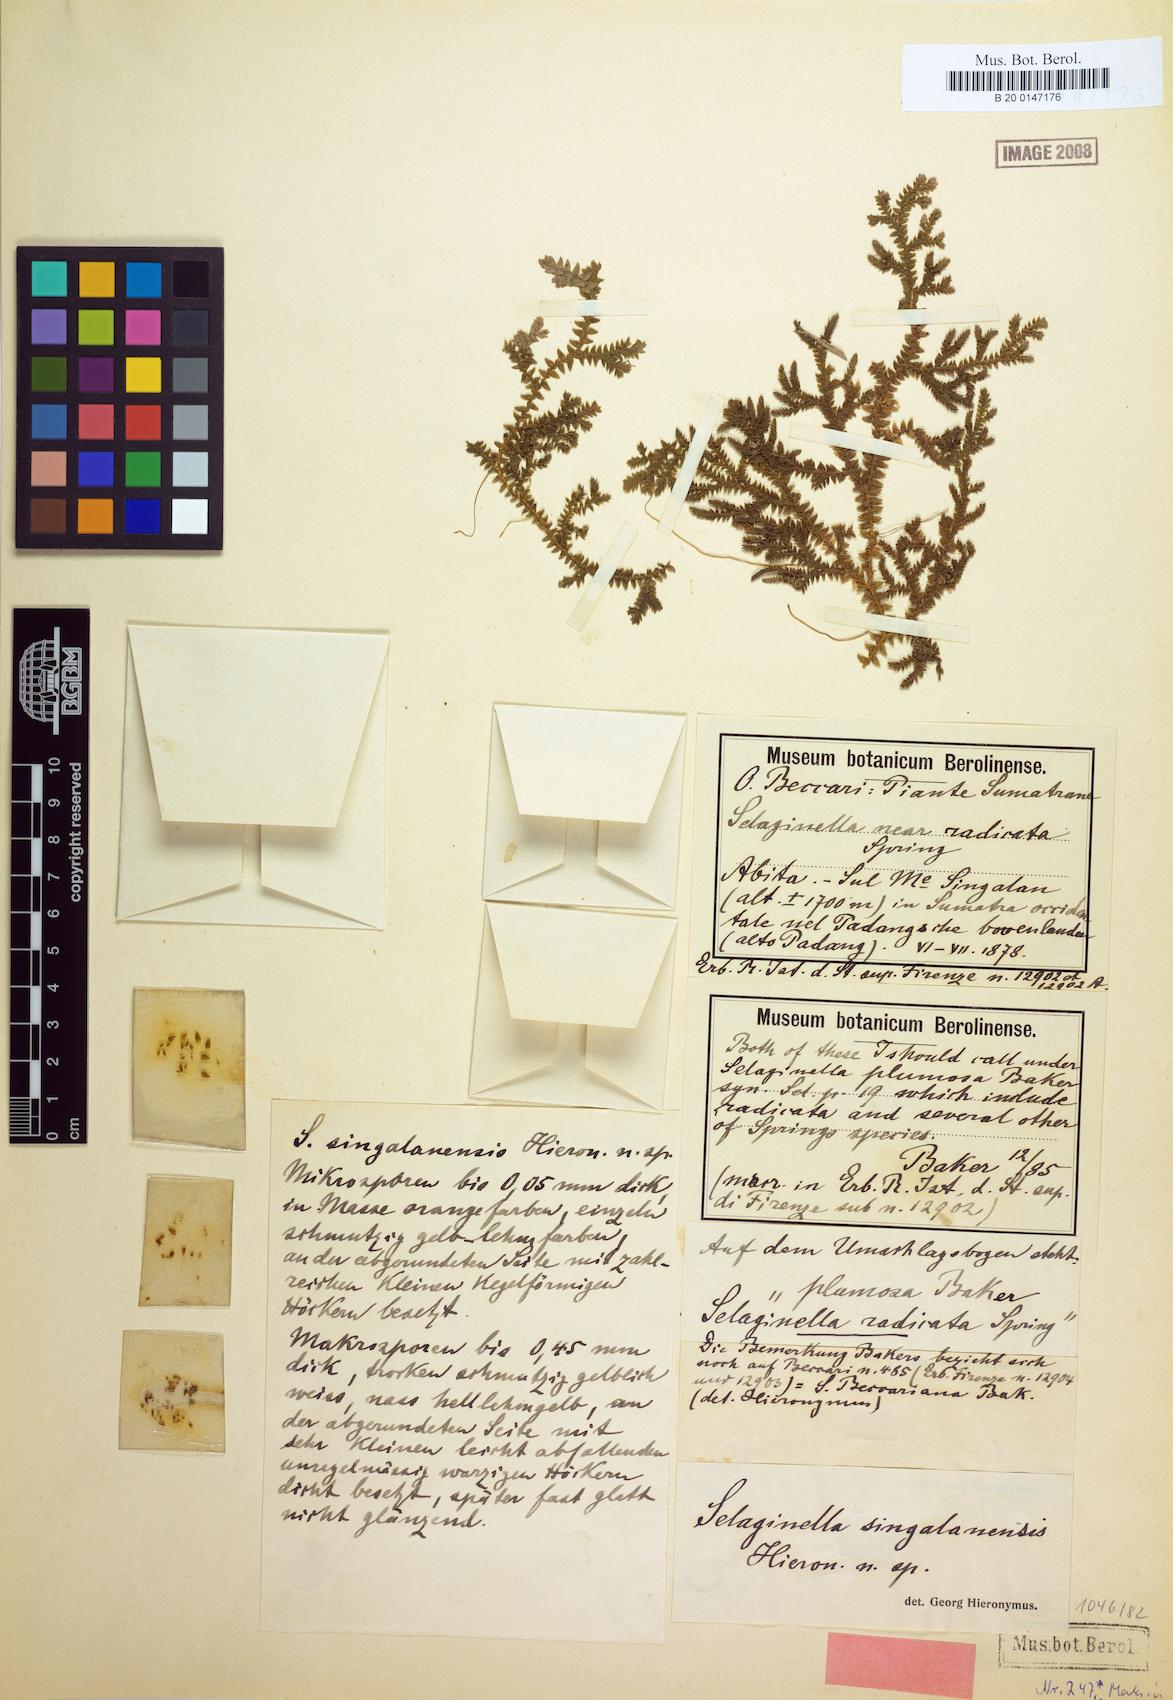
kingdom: Plantae
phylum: Tracheophyta
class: Lycopodiopsida
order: Selaginellales
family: Selaginellaceae
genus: Selaginella
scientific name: Selaginella singalanensis
